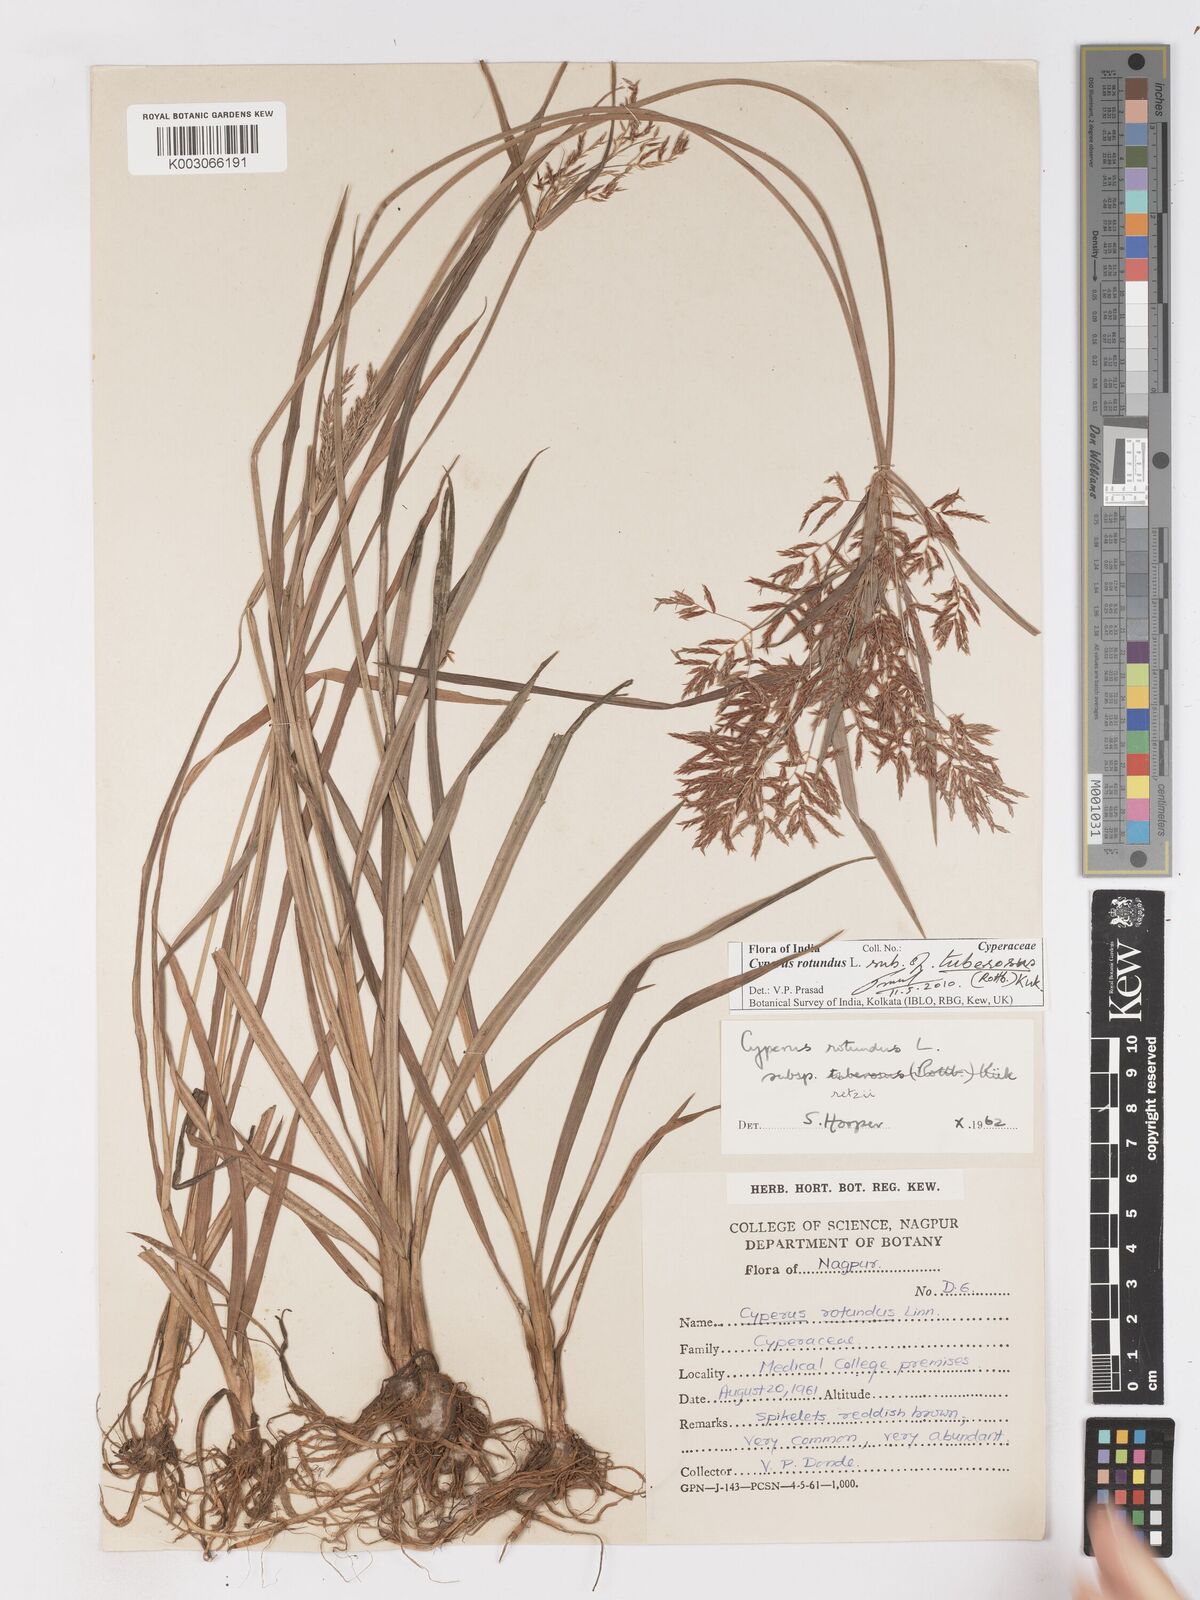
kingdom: Plantae
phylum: Tracheophyta
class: Liliopsida
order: Poales
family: Cyperaceae
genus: Cyperus
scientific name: Cyperus bifax
